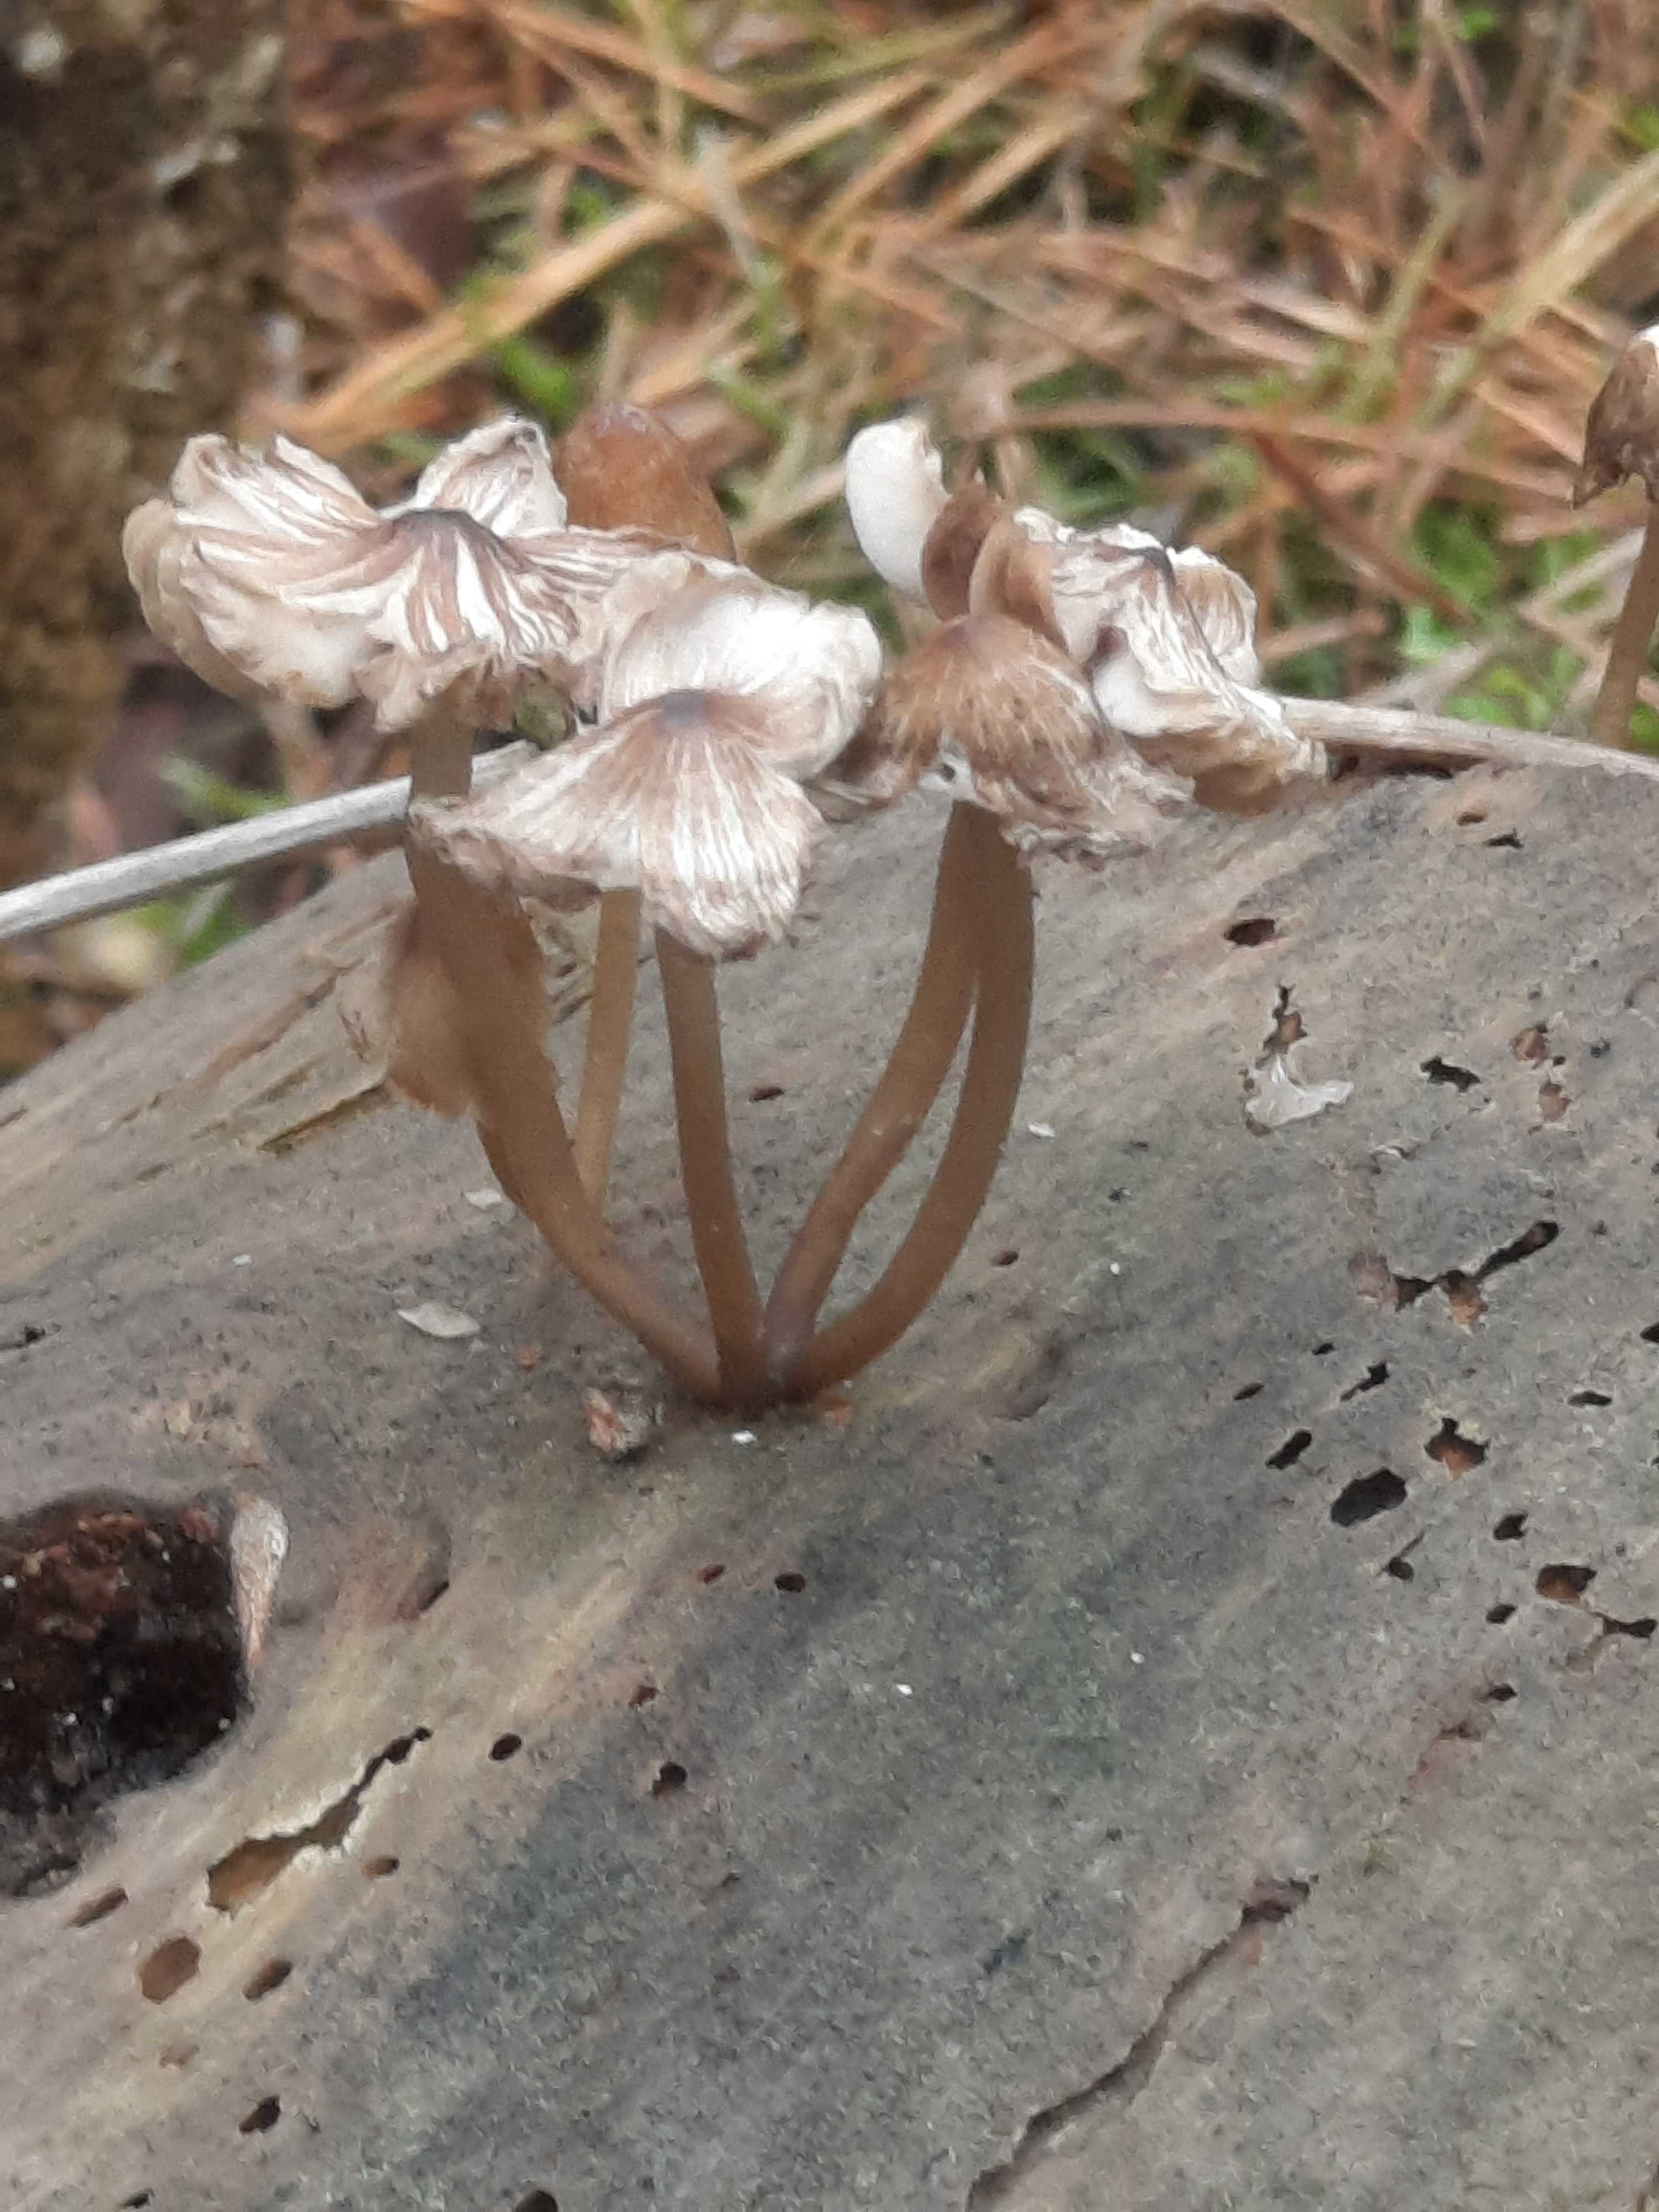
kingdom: Fungi
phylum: Basidiomycota
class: Agaricomycetes
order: Agaricales
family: Mycenaceae
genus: Mycena
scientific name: Mycena stipata
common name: stinkende huesvamp
